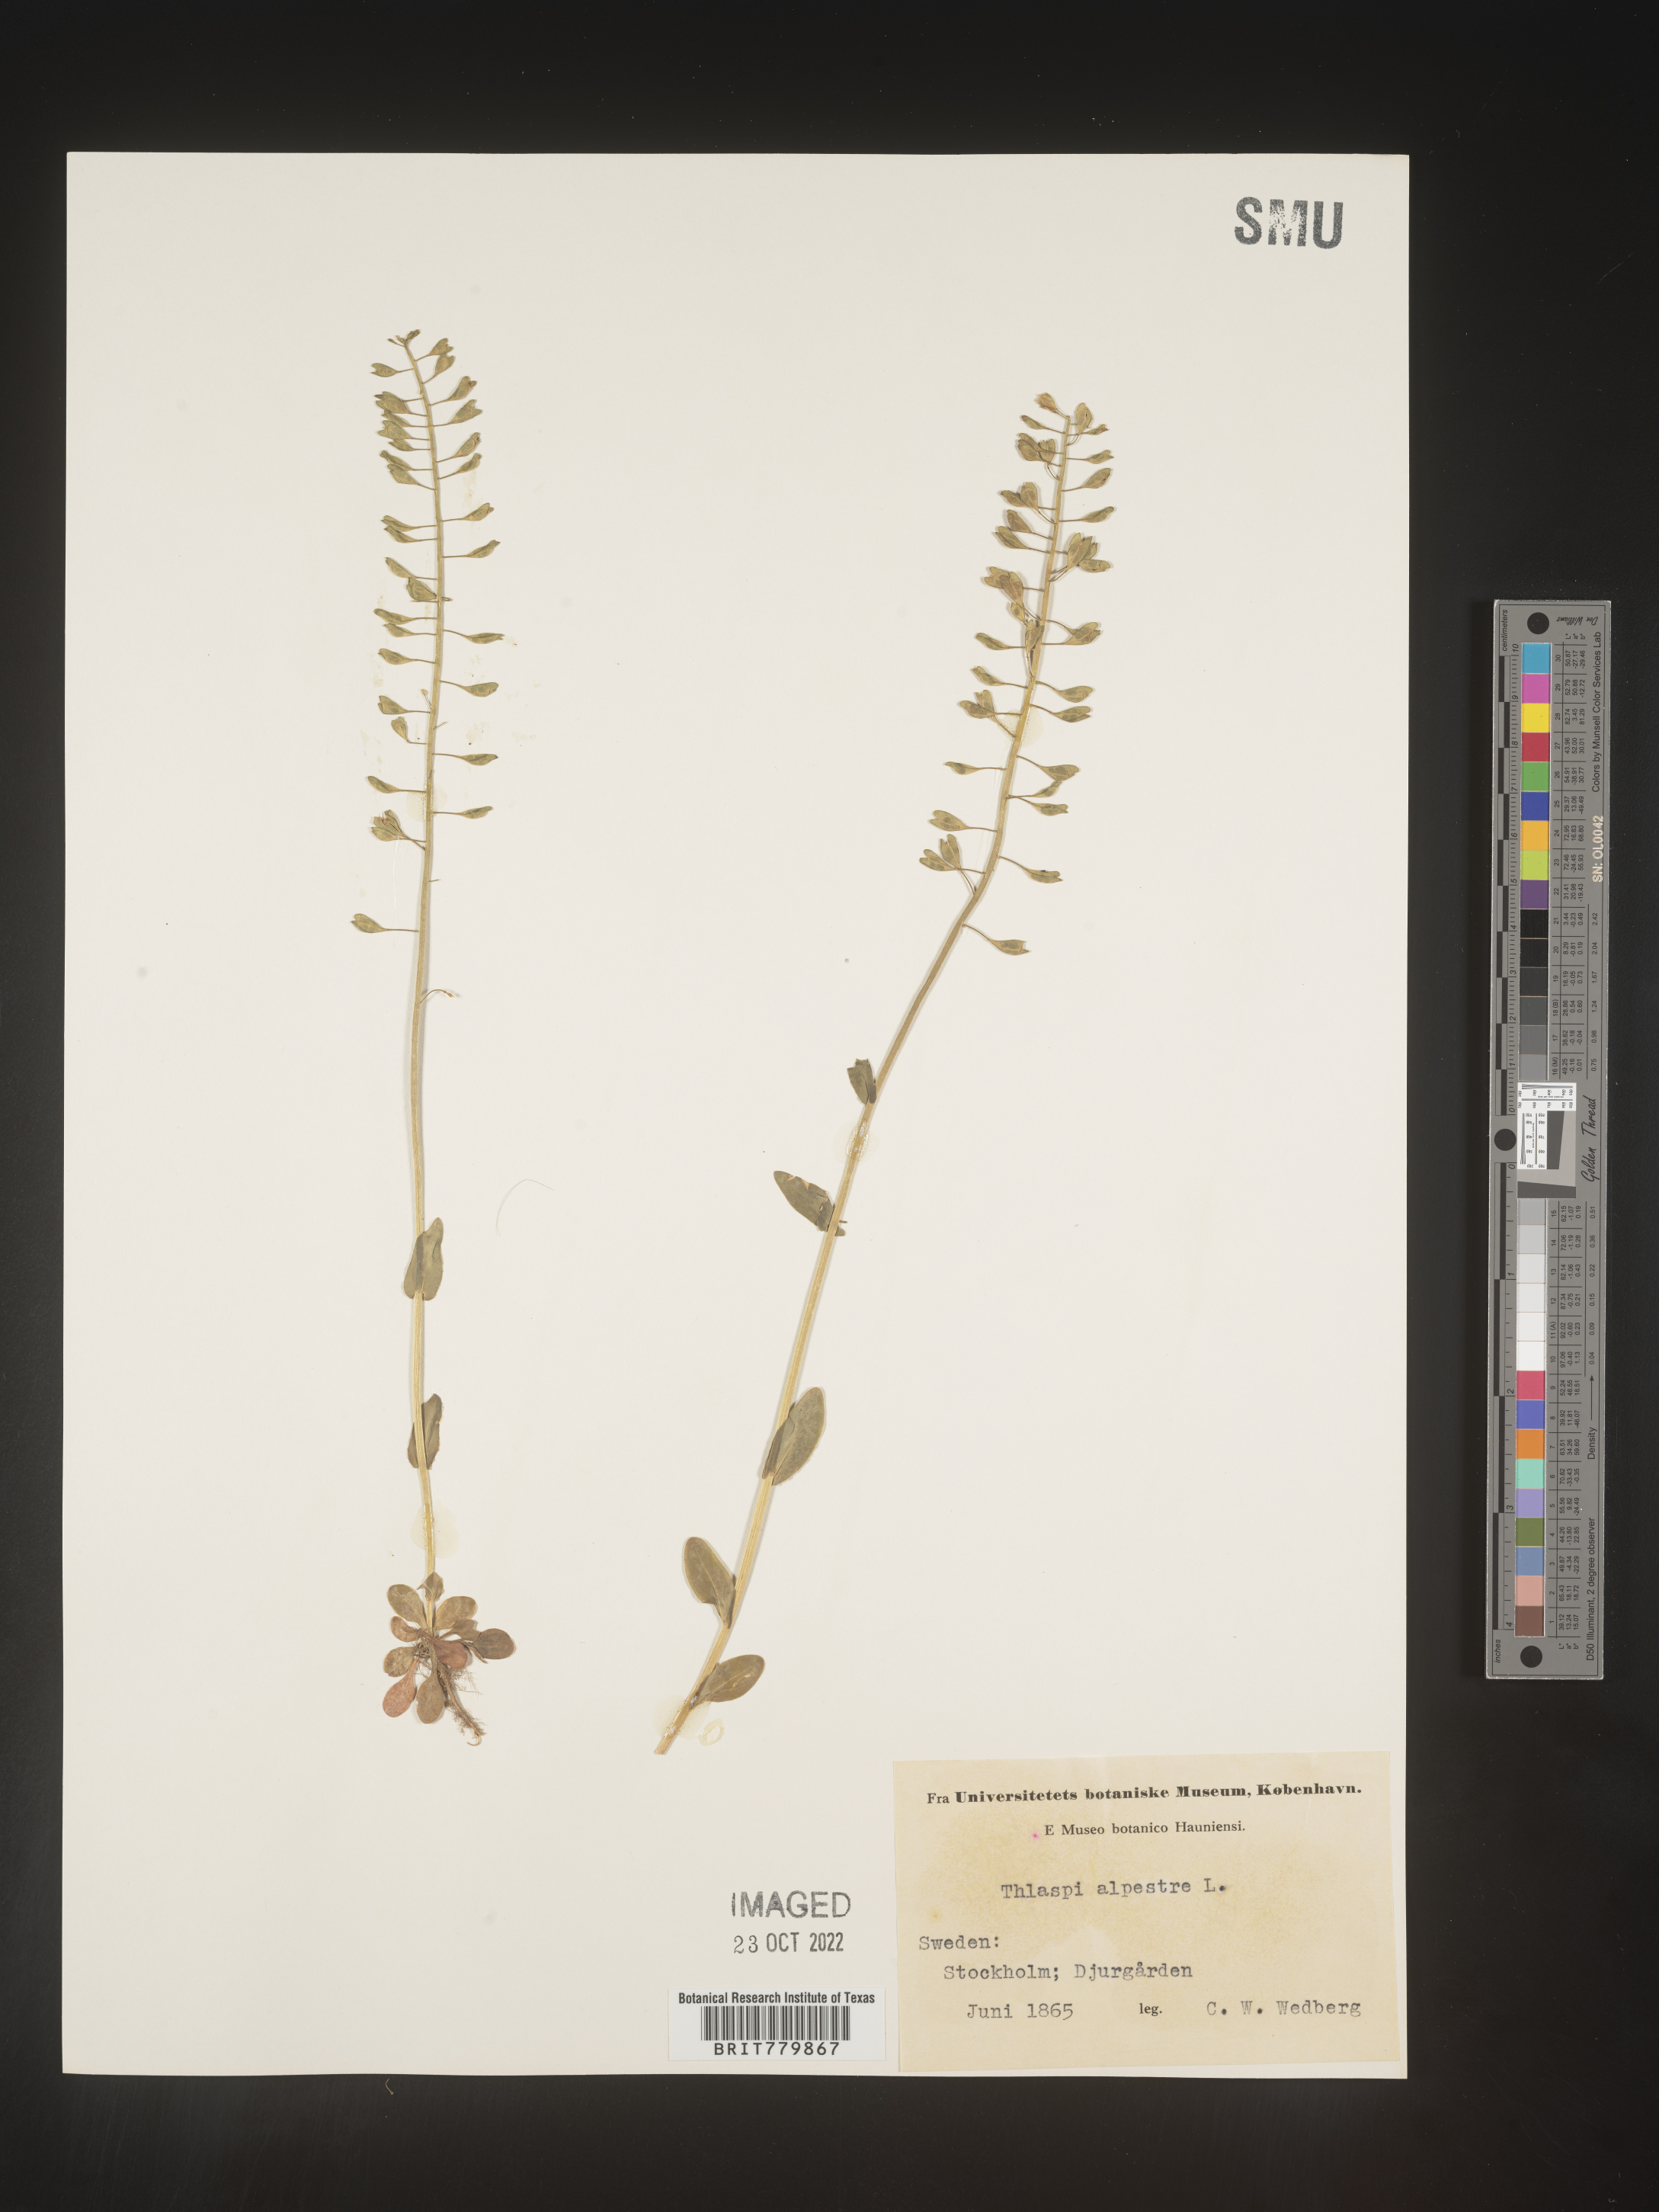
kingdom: Plantae
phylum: Tracheophyta
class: Magnoliopsida
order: Brassicales
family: Brassicaceae
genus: Thlaspi
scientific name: Thlaspi
